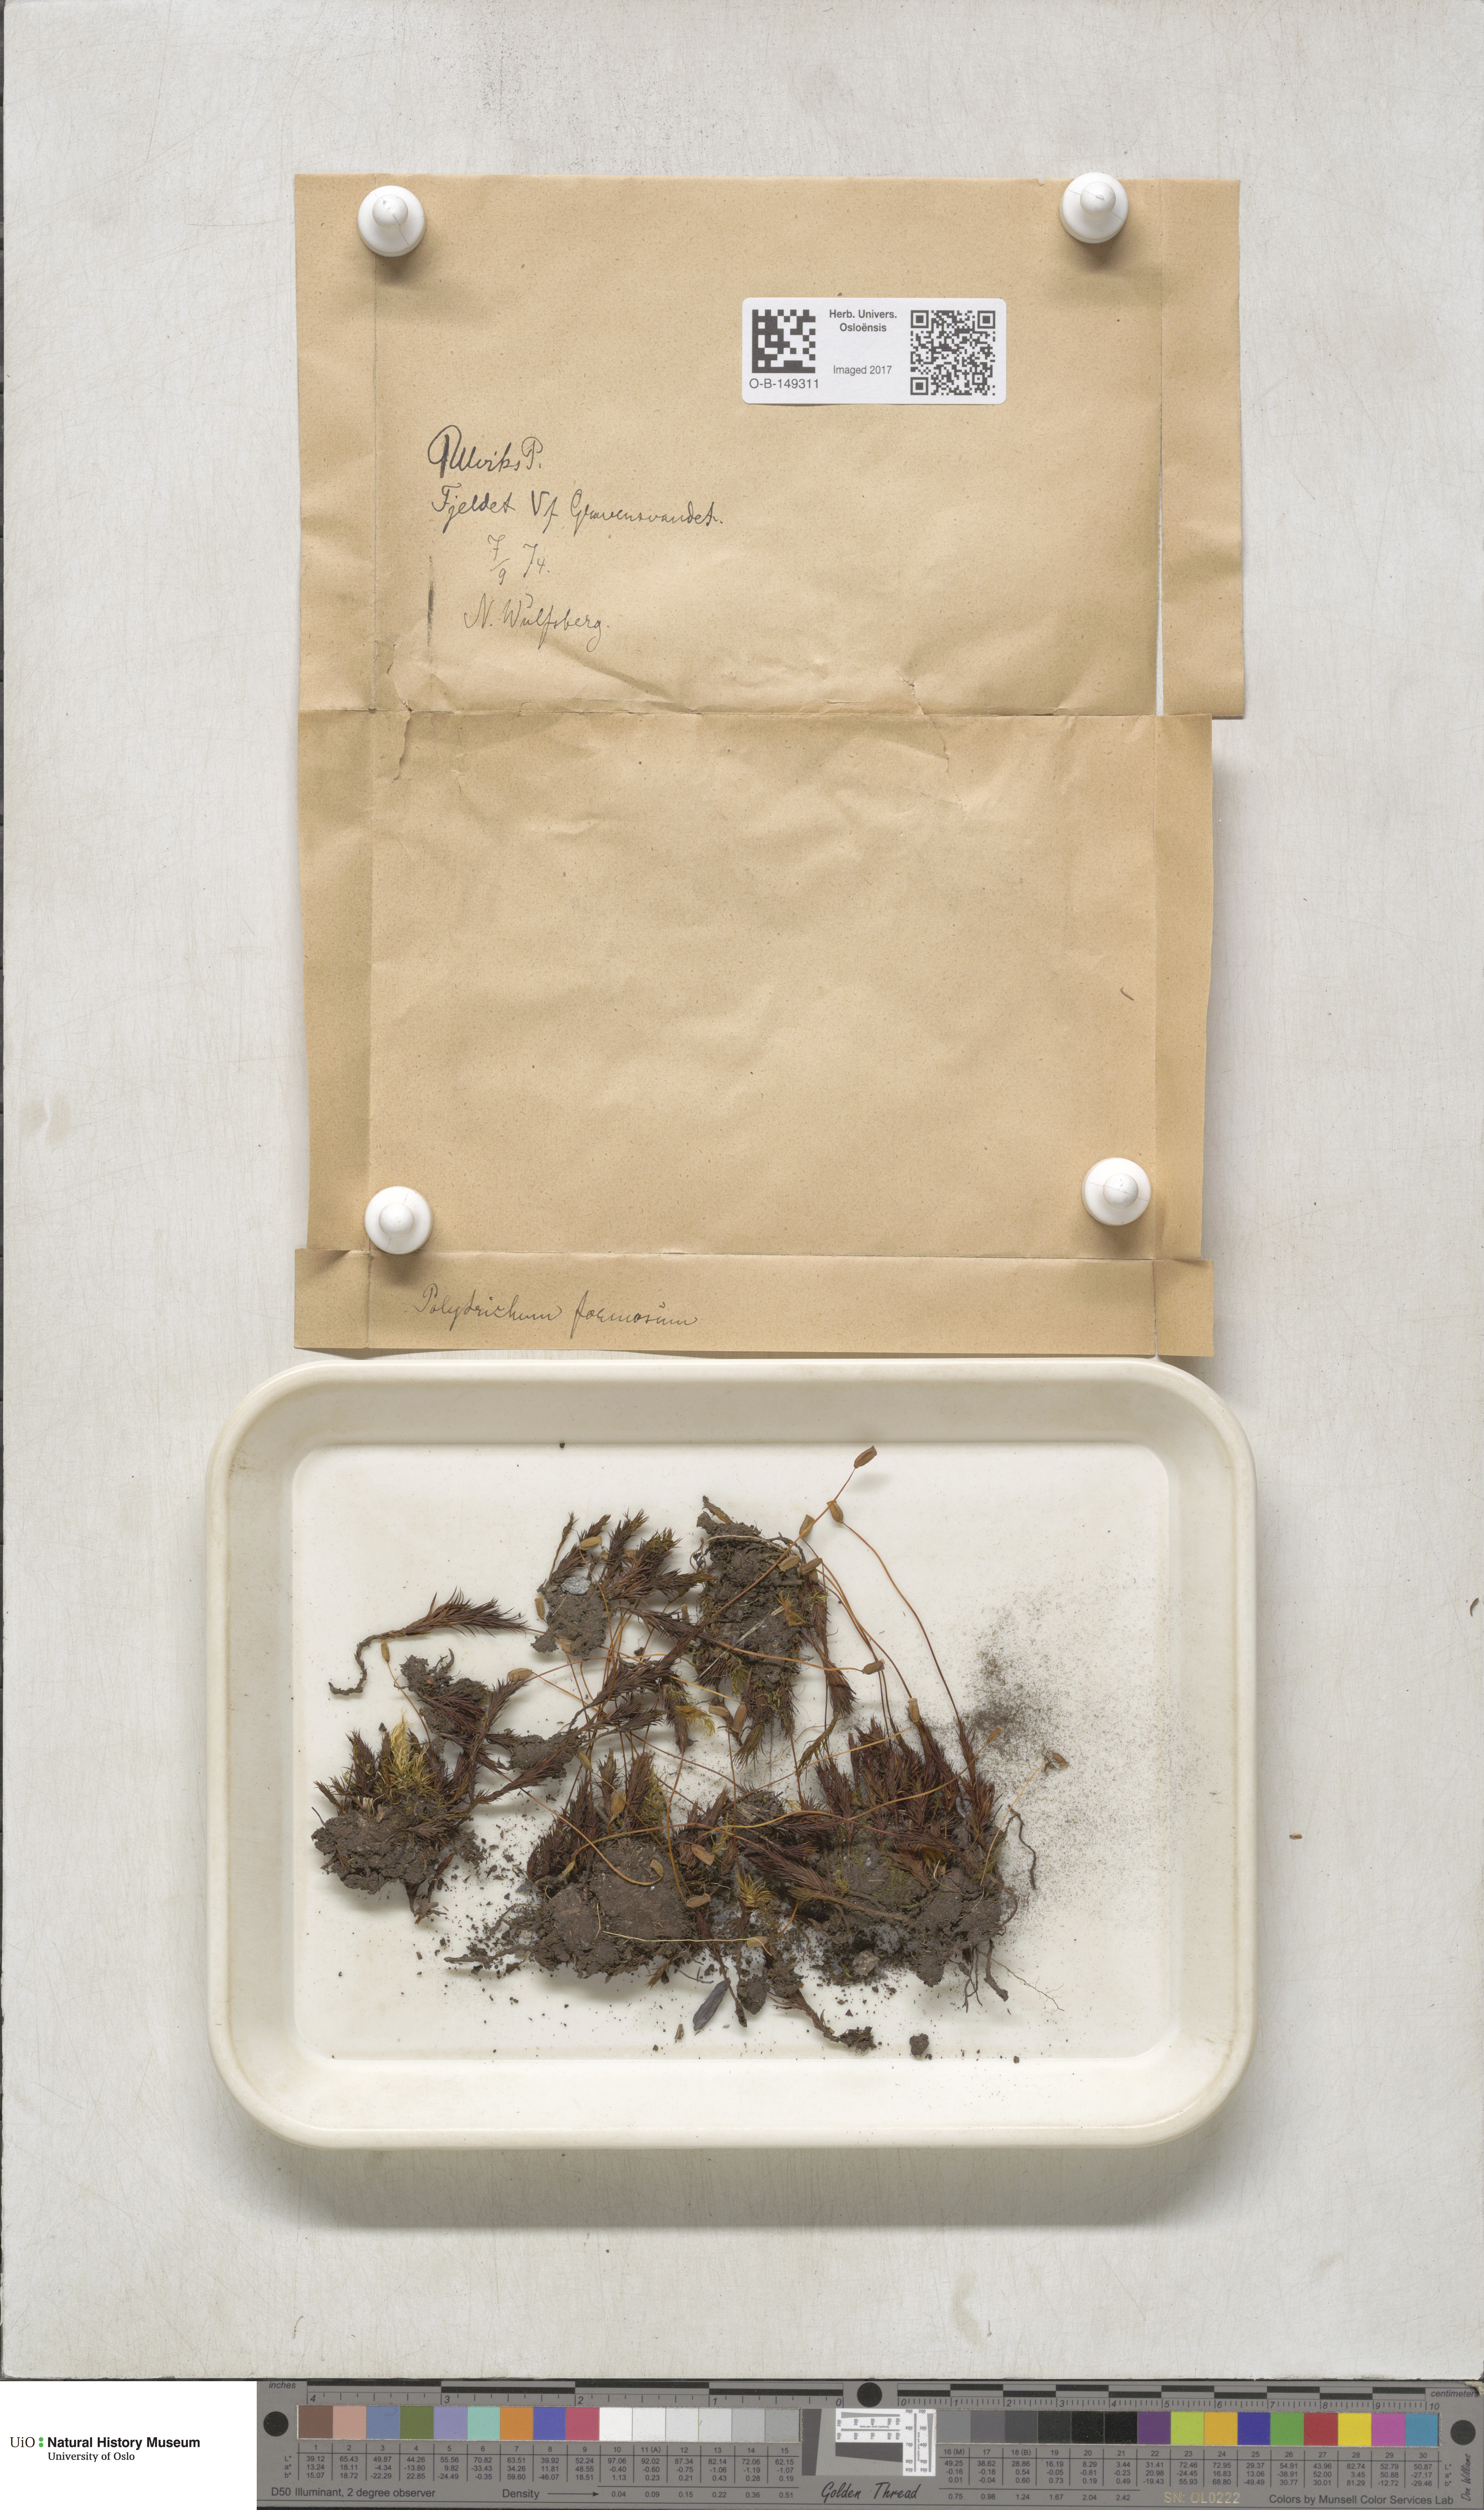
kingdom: Plantae
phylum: Bryophyta
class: Polytrichopsida
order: Polytrichales
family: Polytrichaceae
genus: Polytrichum
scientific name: Polytrichum formosum
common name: Bank haircap moss
